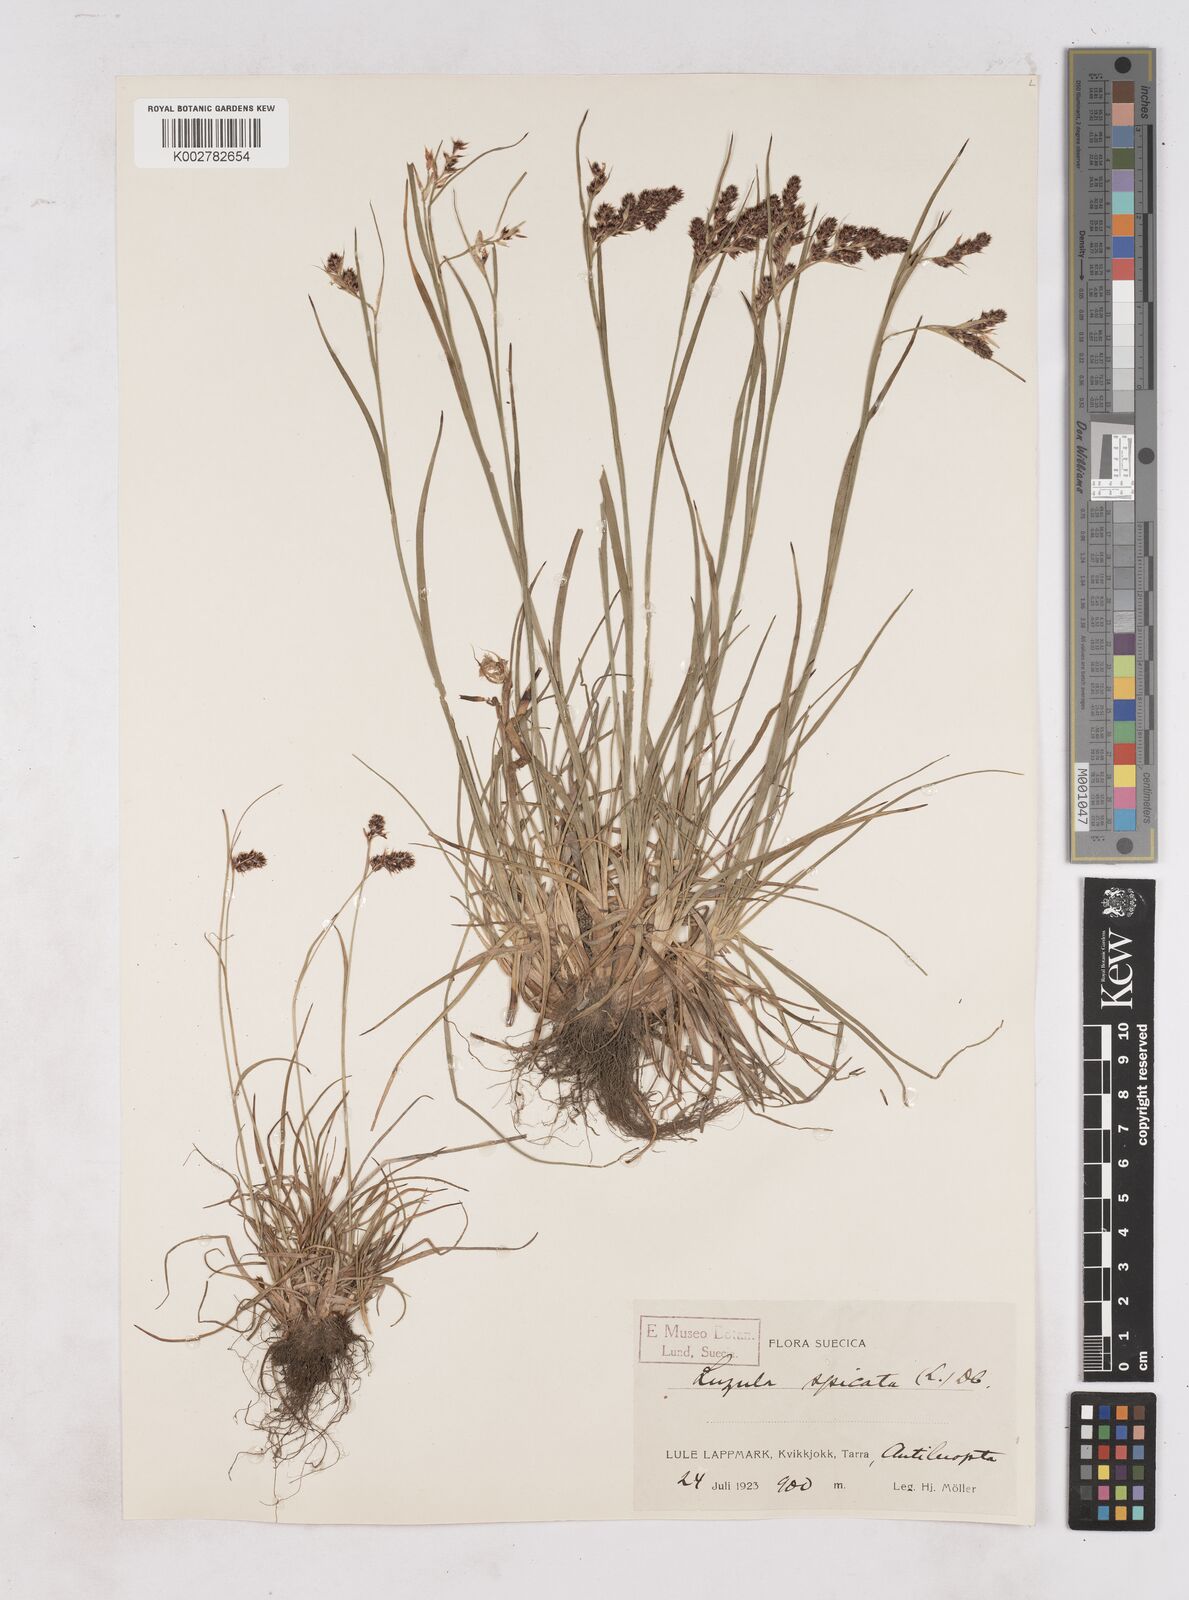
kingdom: Plantae
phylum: Tracheophyta
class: Liliopsida
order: Poales
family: Juncaceae
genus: Luzula
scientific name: Luzula spicata
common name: Spiked wood-rush
